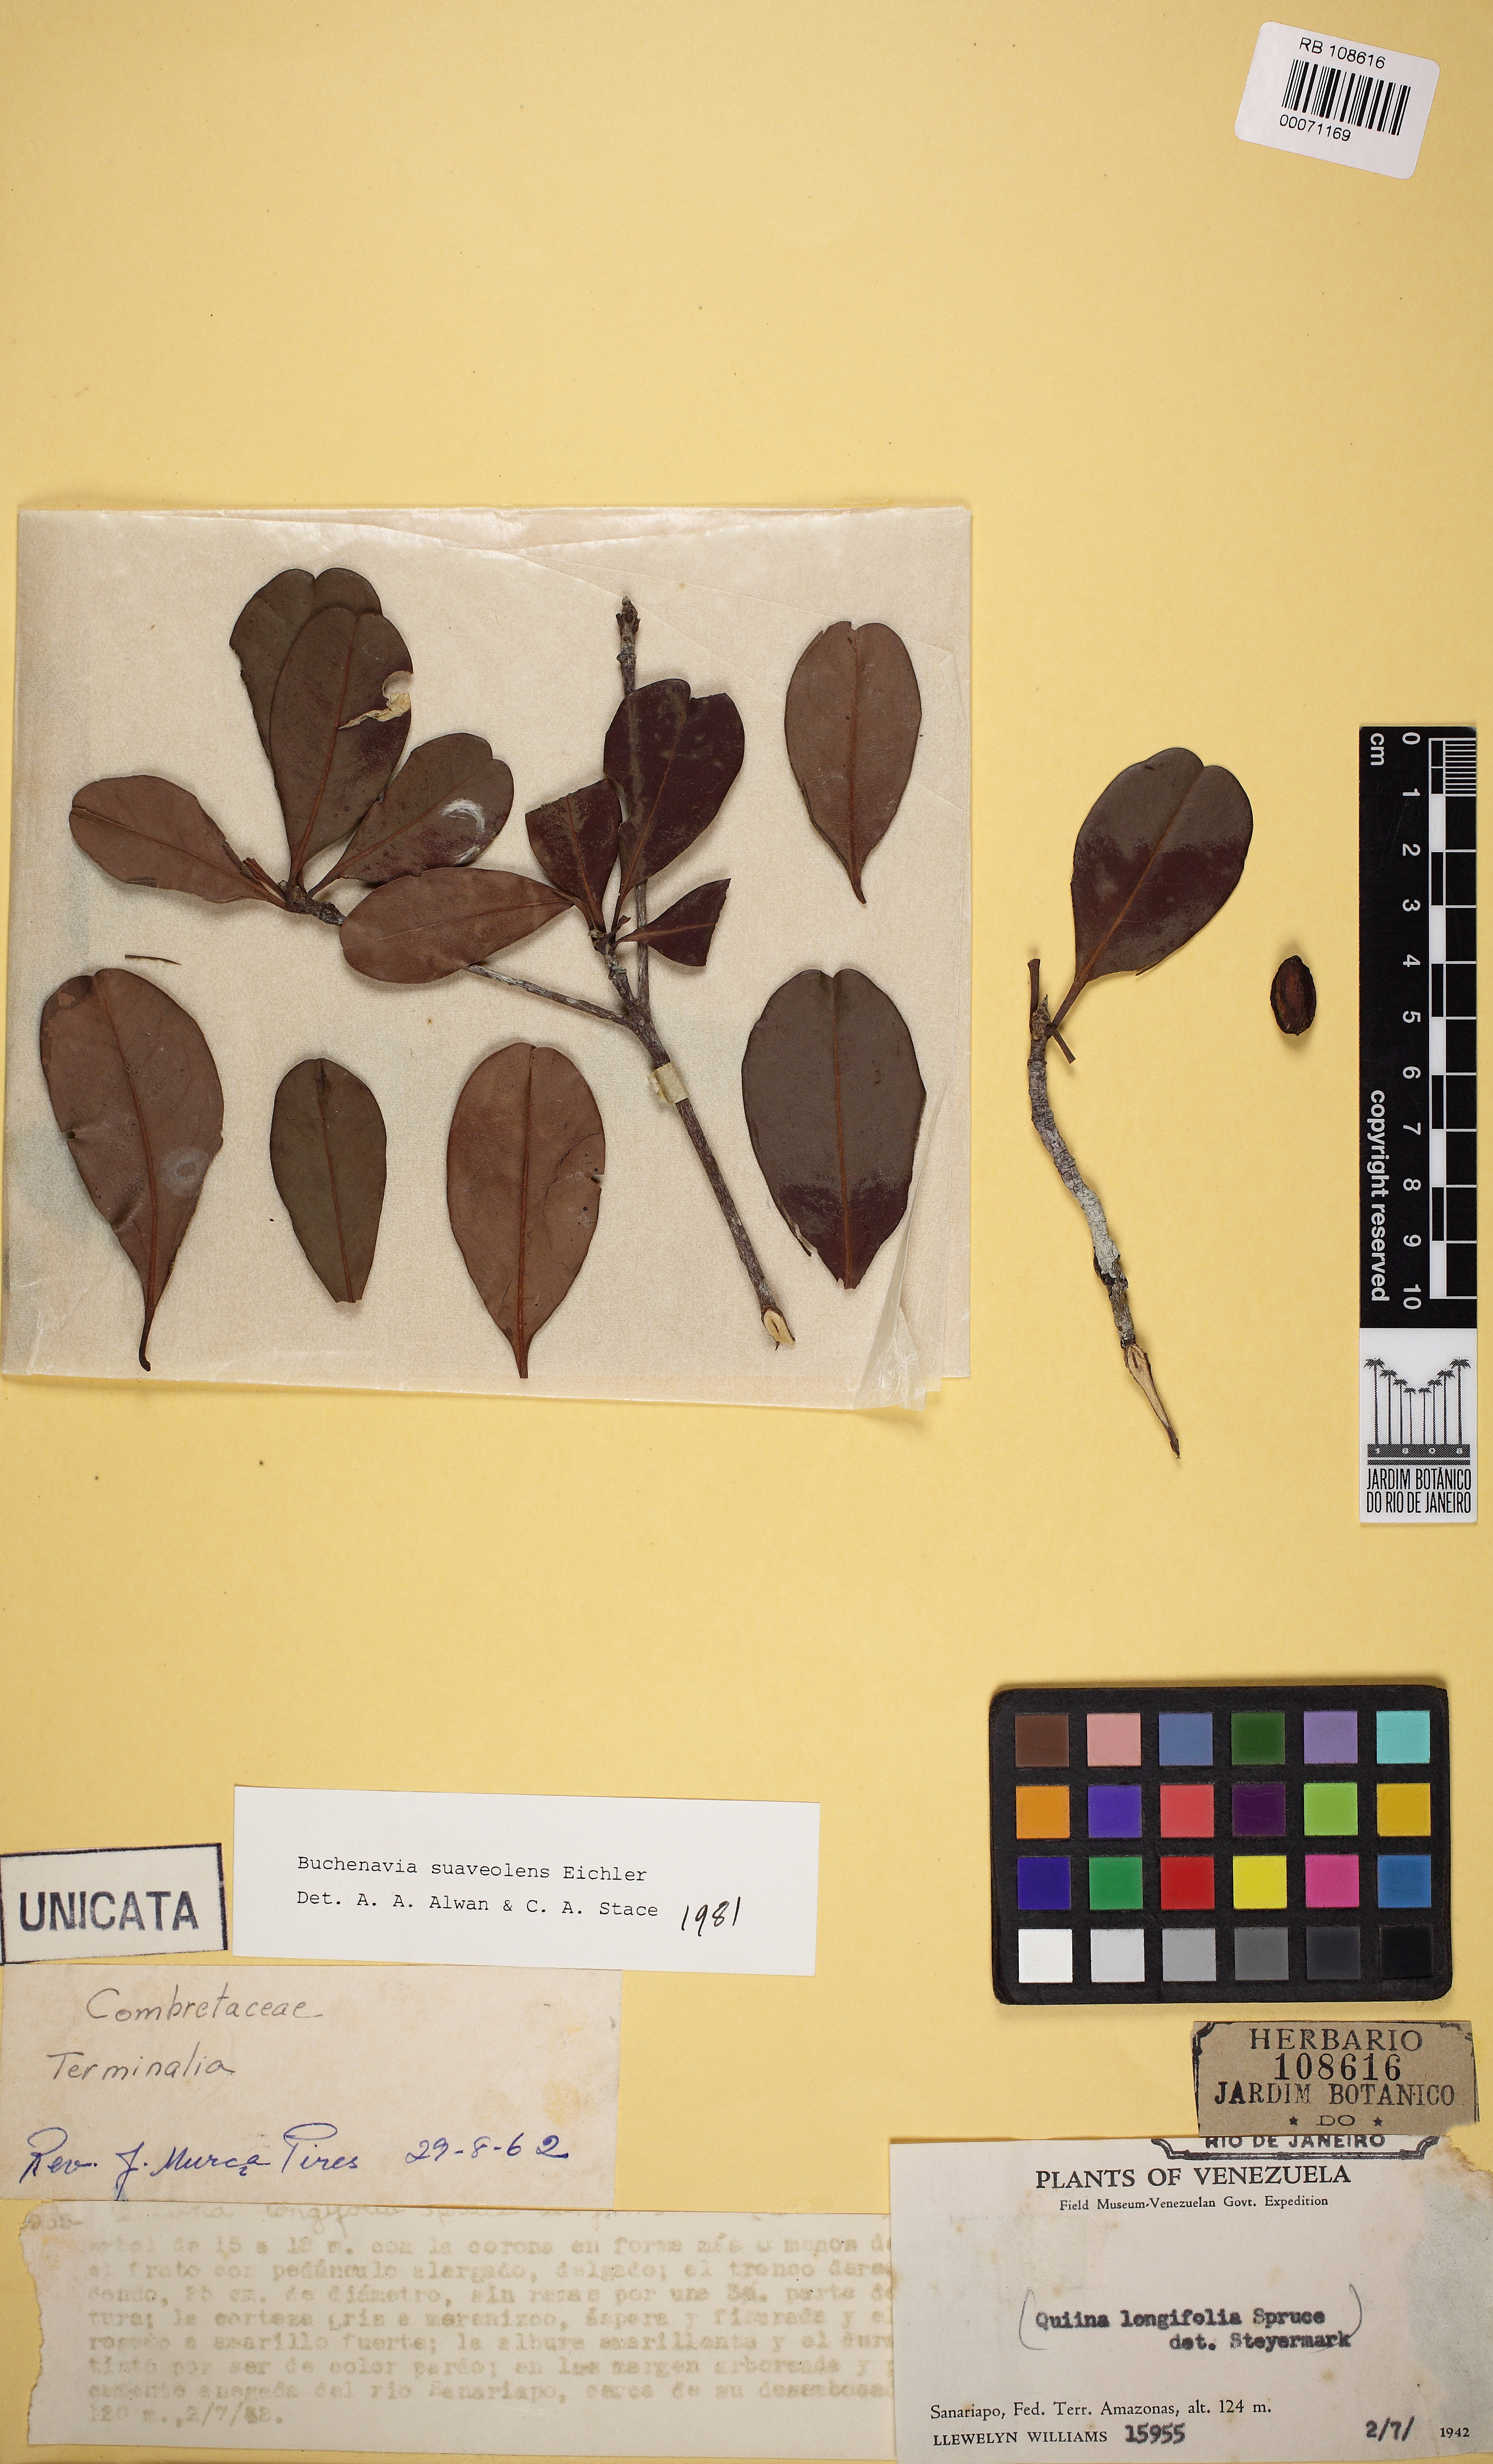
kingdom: Plantae
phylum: Tracheophyta
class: Magnoliopsida
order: Myrtales
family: Combretaceae
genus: Terminalia
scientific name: Terminalia suaveolens
